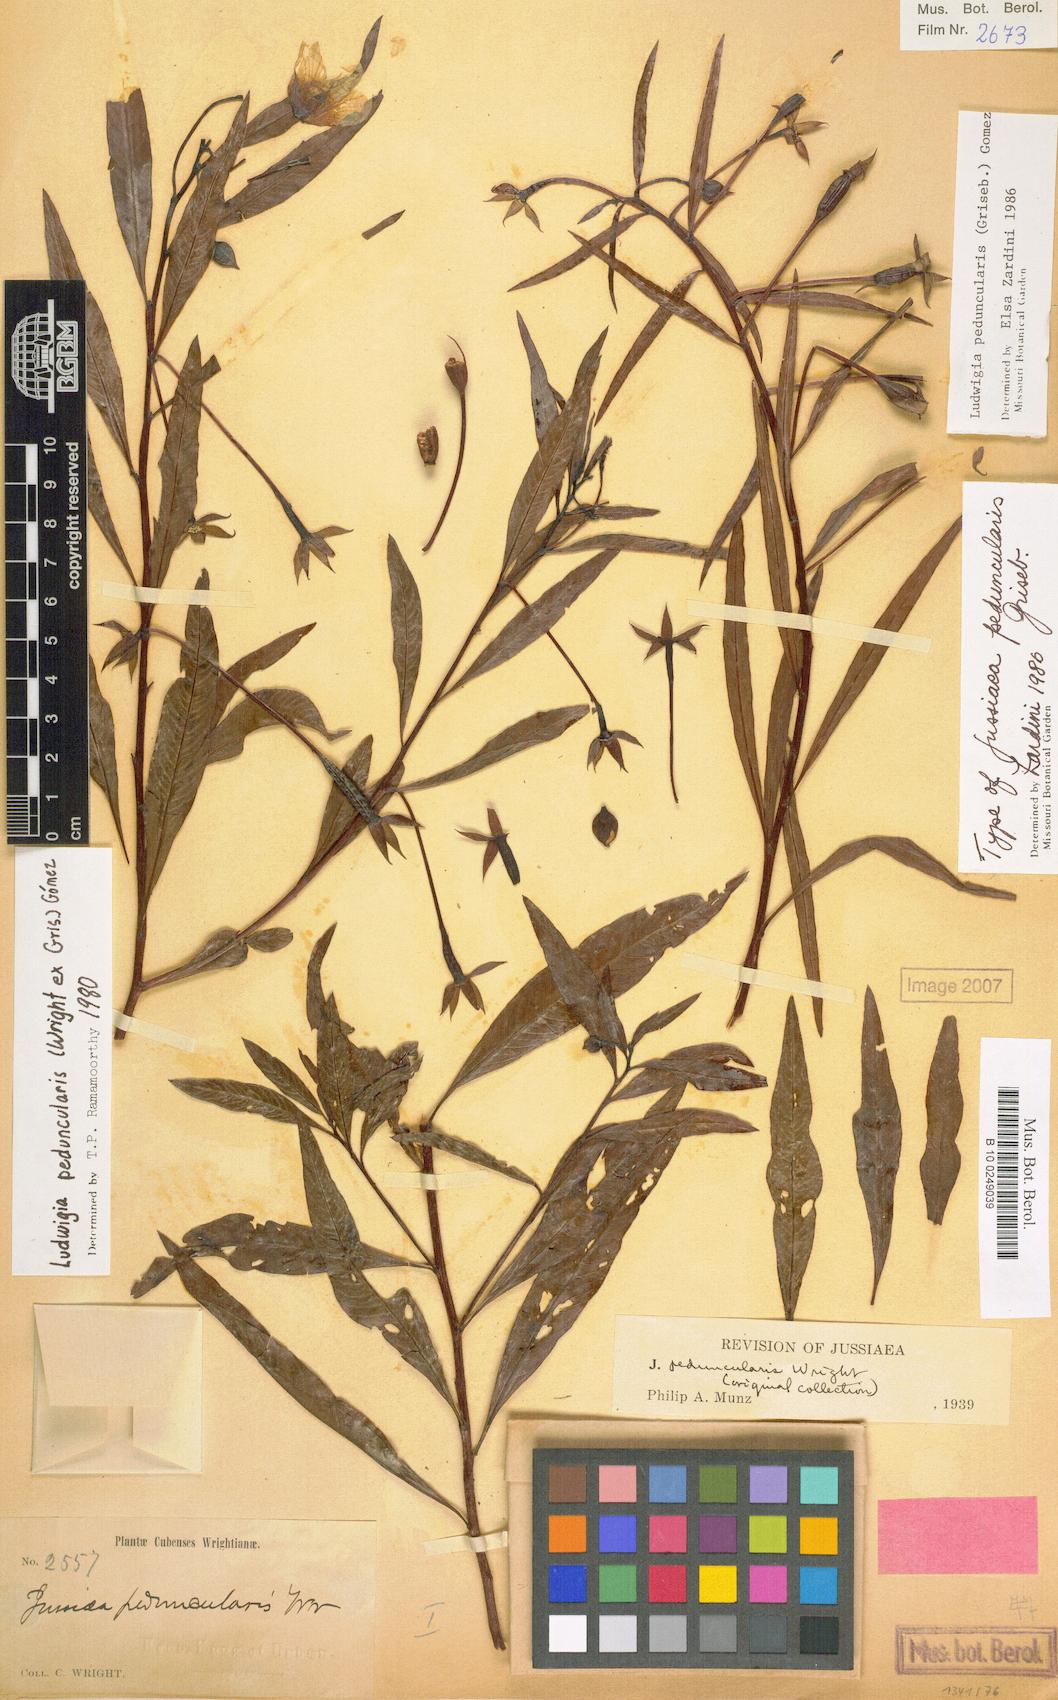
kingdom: Plantae
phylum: Tracheophyta
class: Magnoliopsida
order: Myrtales
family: Onagraceae
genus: Ludwigia
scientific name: Ludwigia peduncularis
